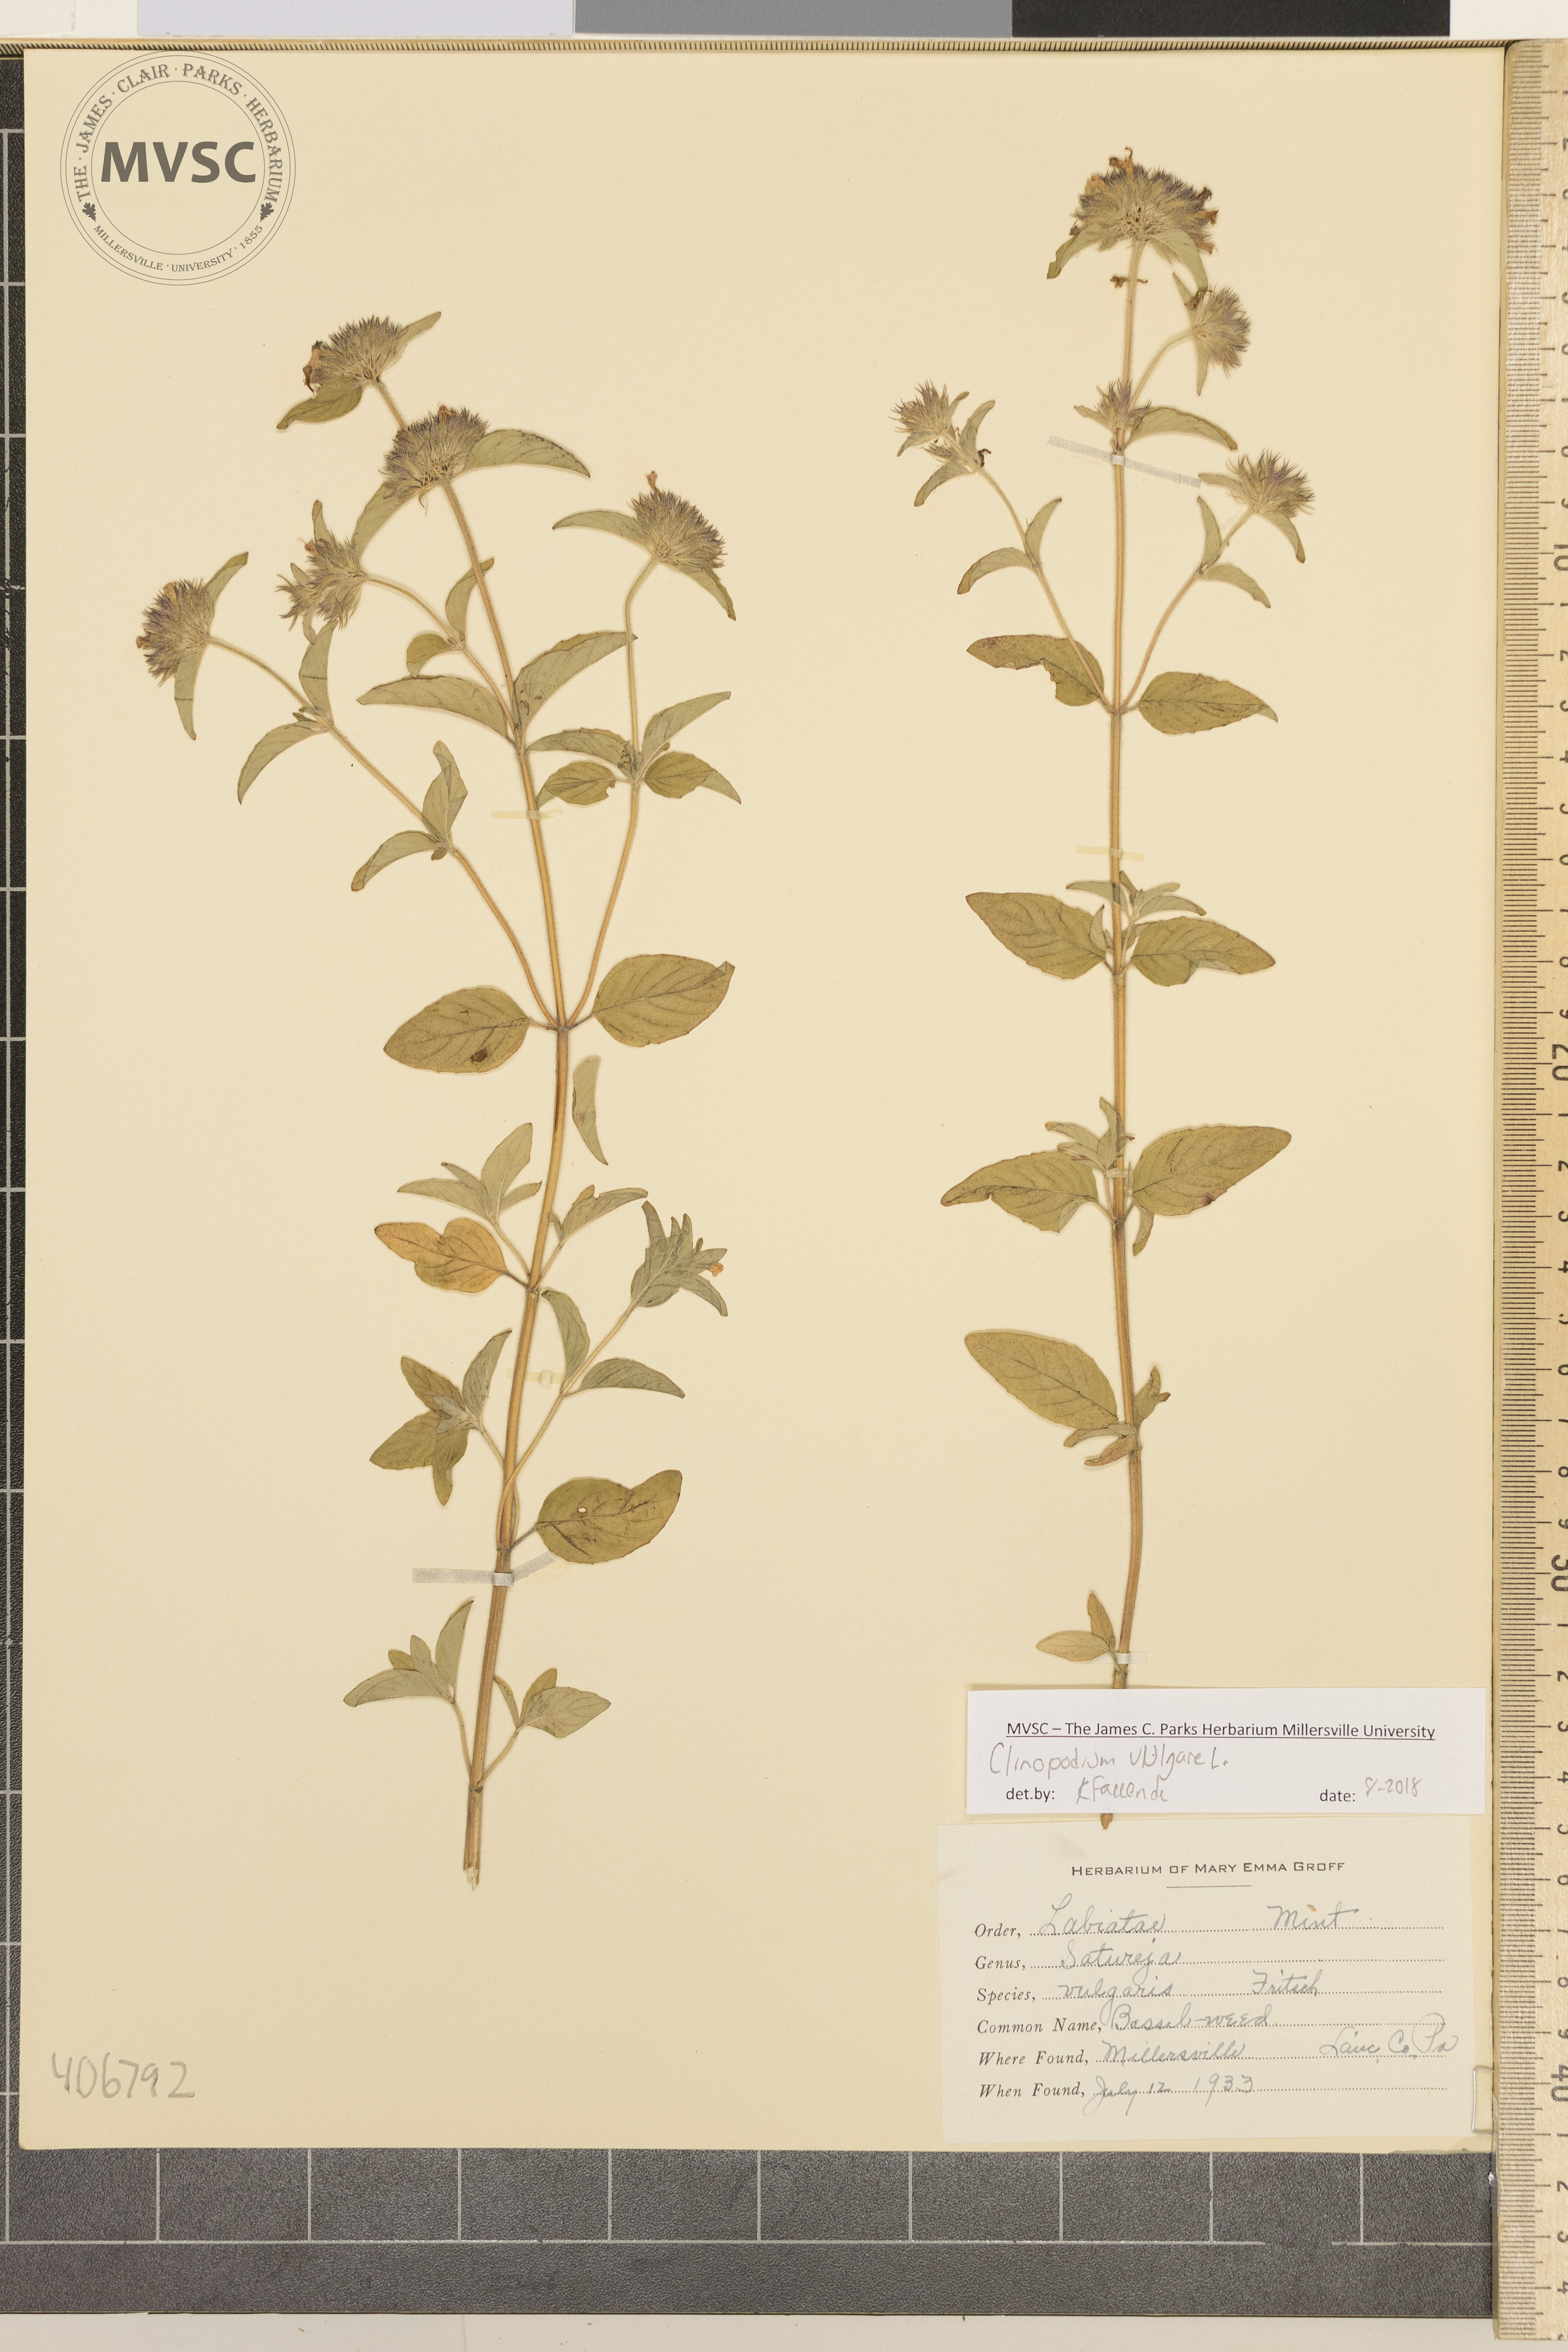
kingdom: Plantae
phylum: Tracheophyta
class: Magnoliopsida
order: Lamiales
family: Lamiaceae
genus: Clinopodium
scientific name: Clinopodium vulgare
